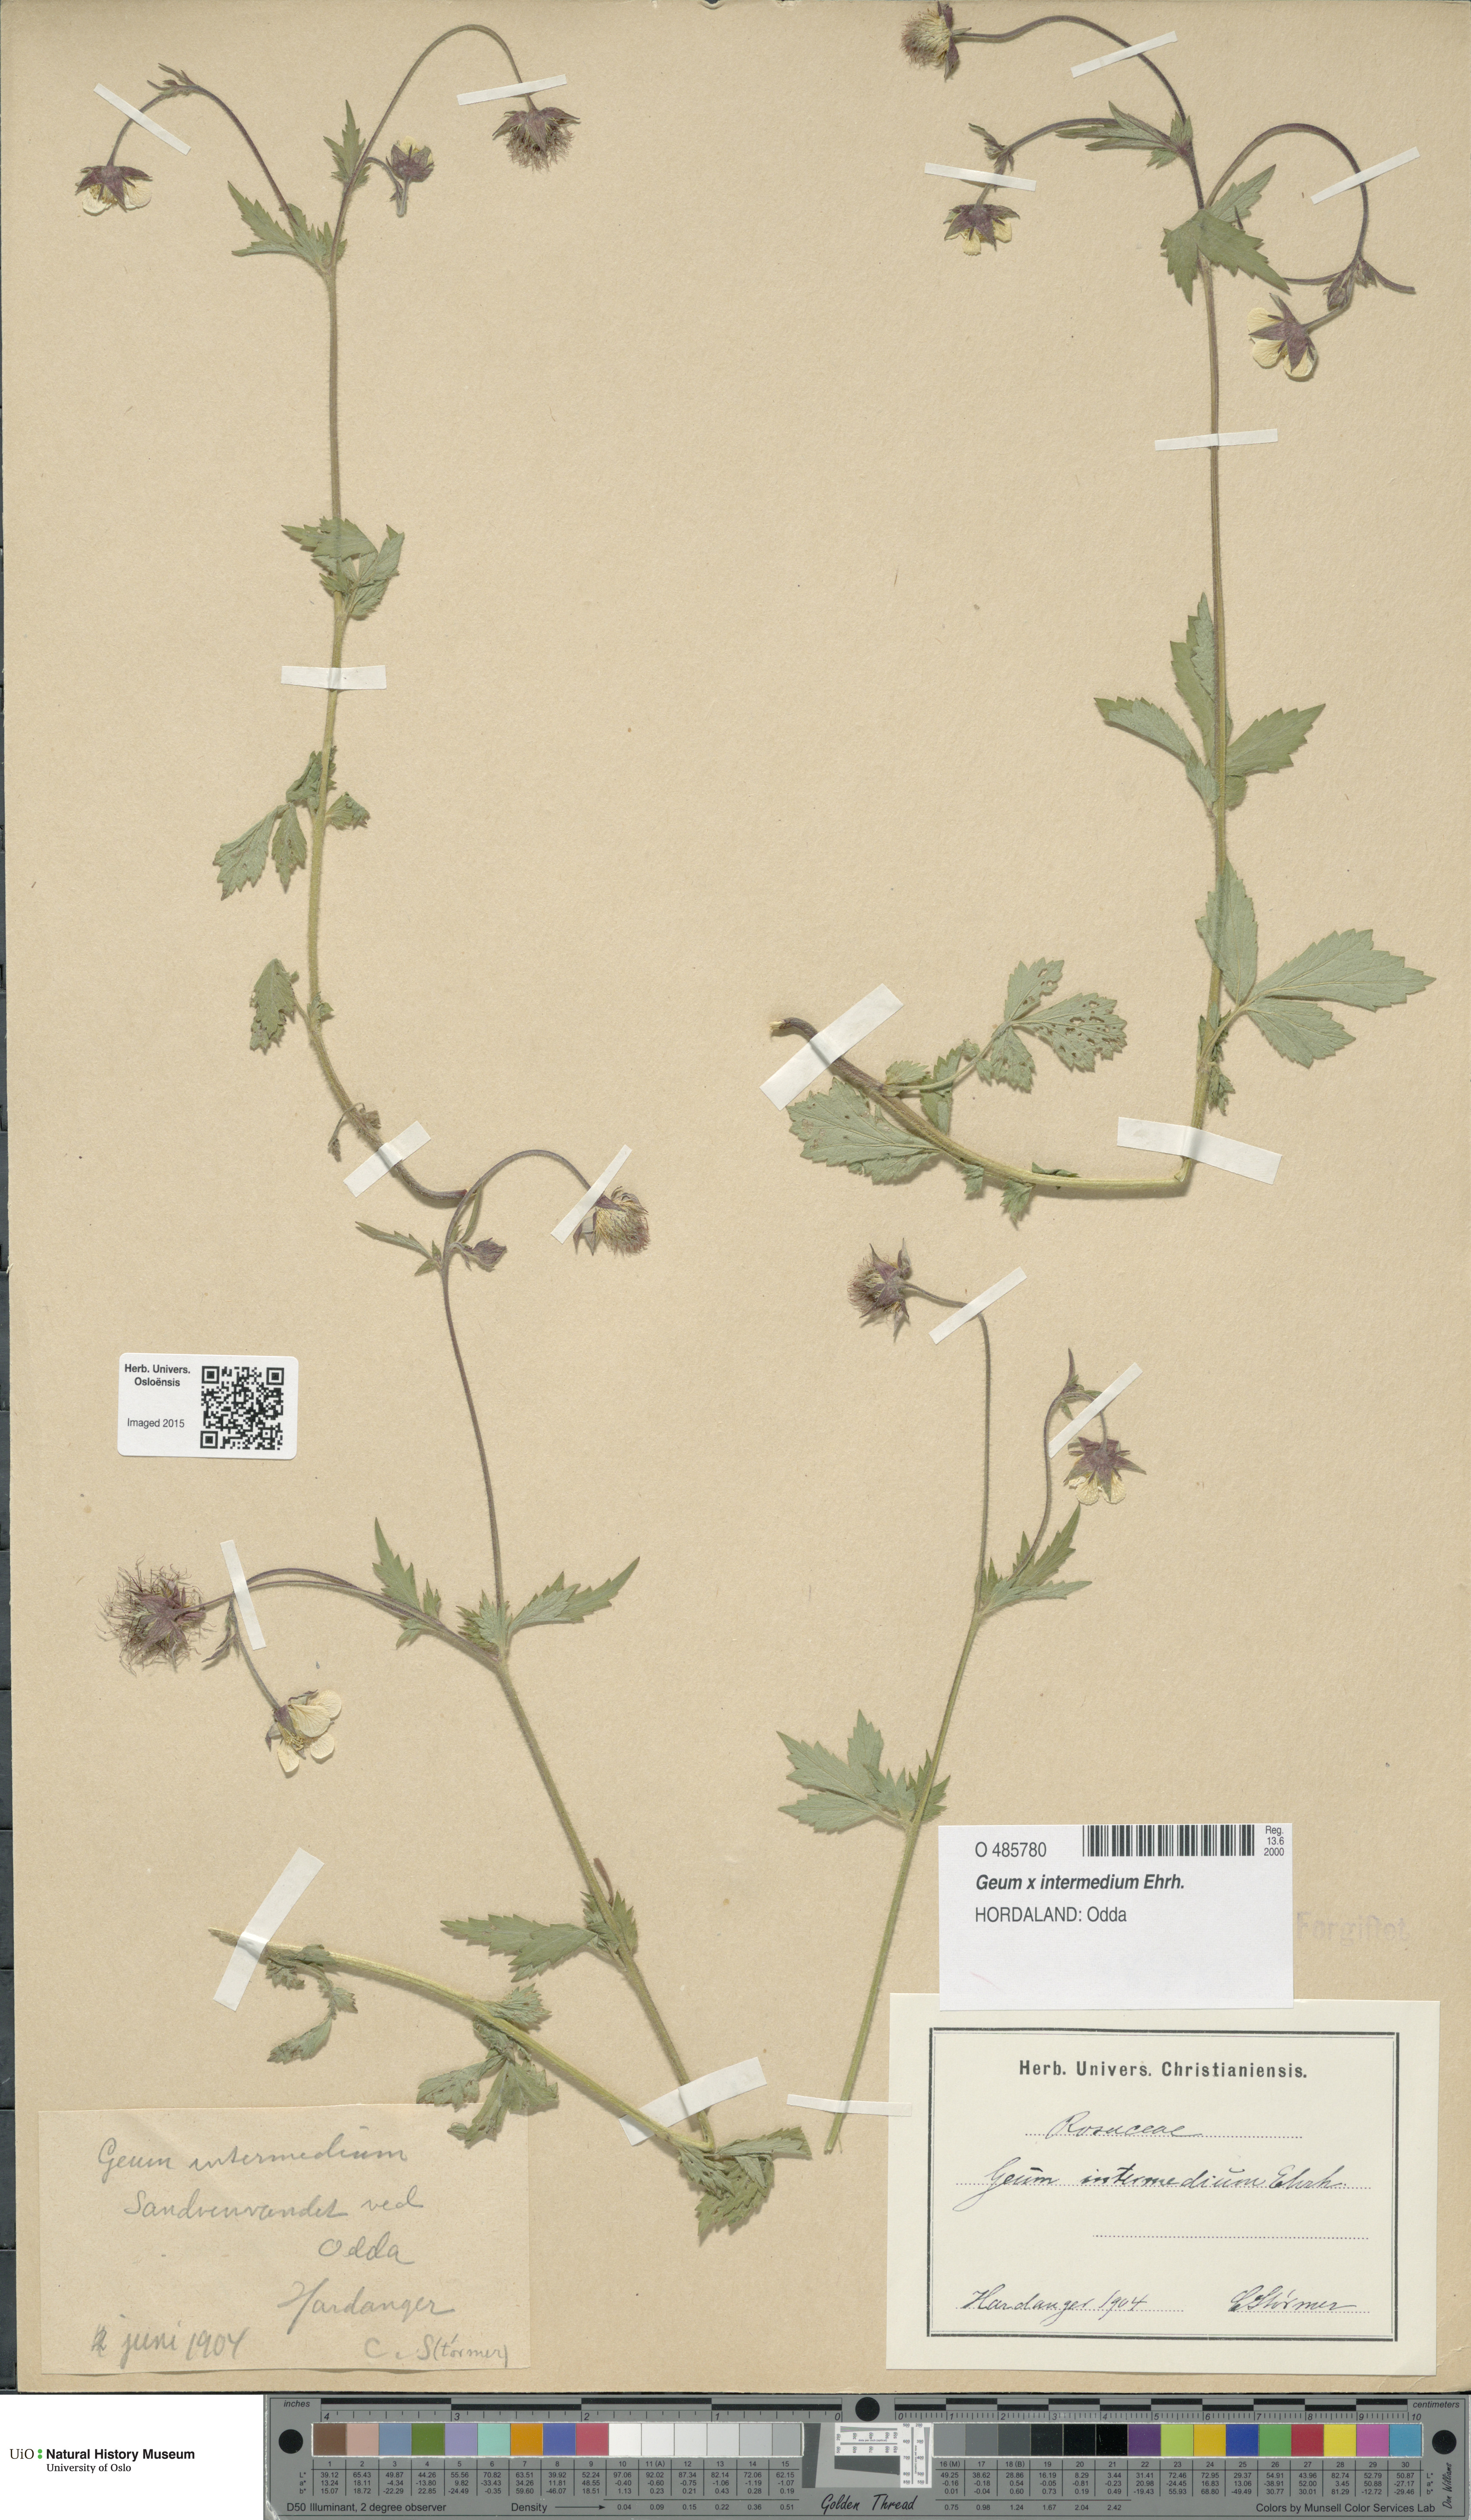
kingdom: Plantae
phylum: Tracheophyta
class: Magnoliopsida
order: Rosales
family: Rosaceae
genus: Geum
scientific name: Geum intermedium
